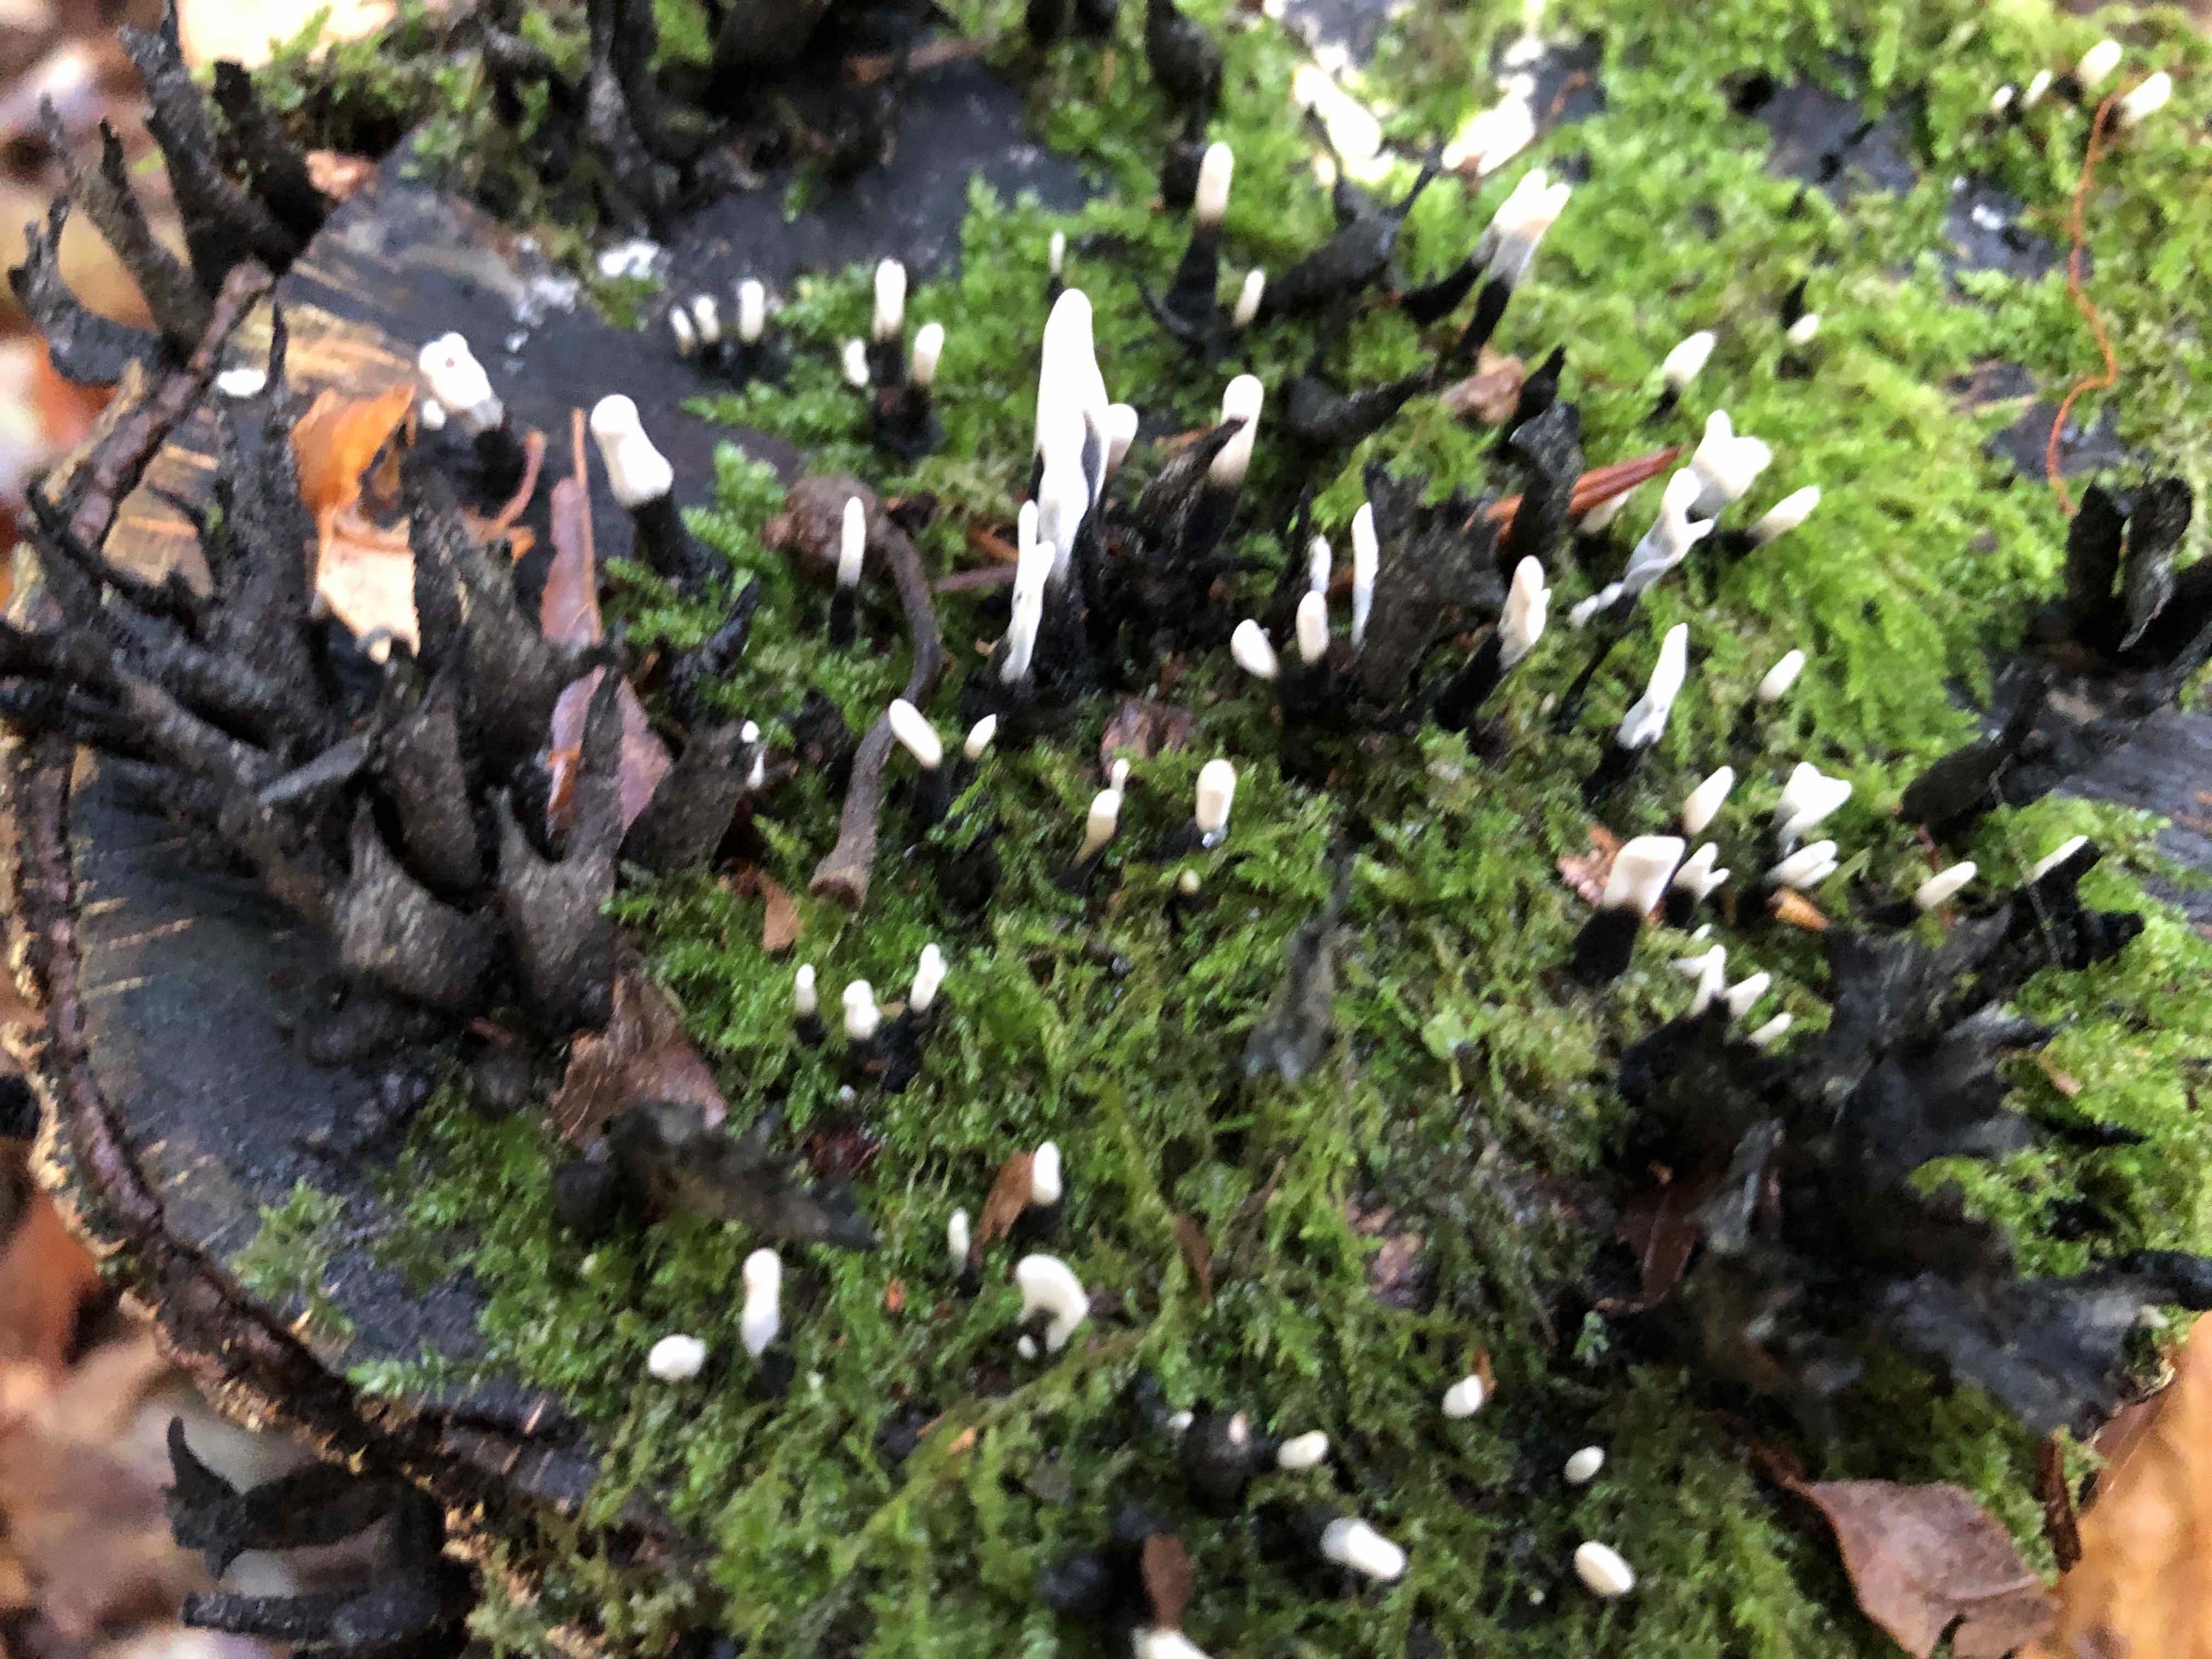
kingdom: Fungi
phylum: Ascomycota
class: Sordariomycetes
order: Xylariales
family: Xylariaceae
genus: Xylaria
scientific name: Xylaria hypoxylon
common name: grenet stødsvamp
